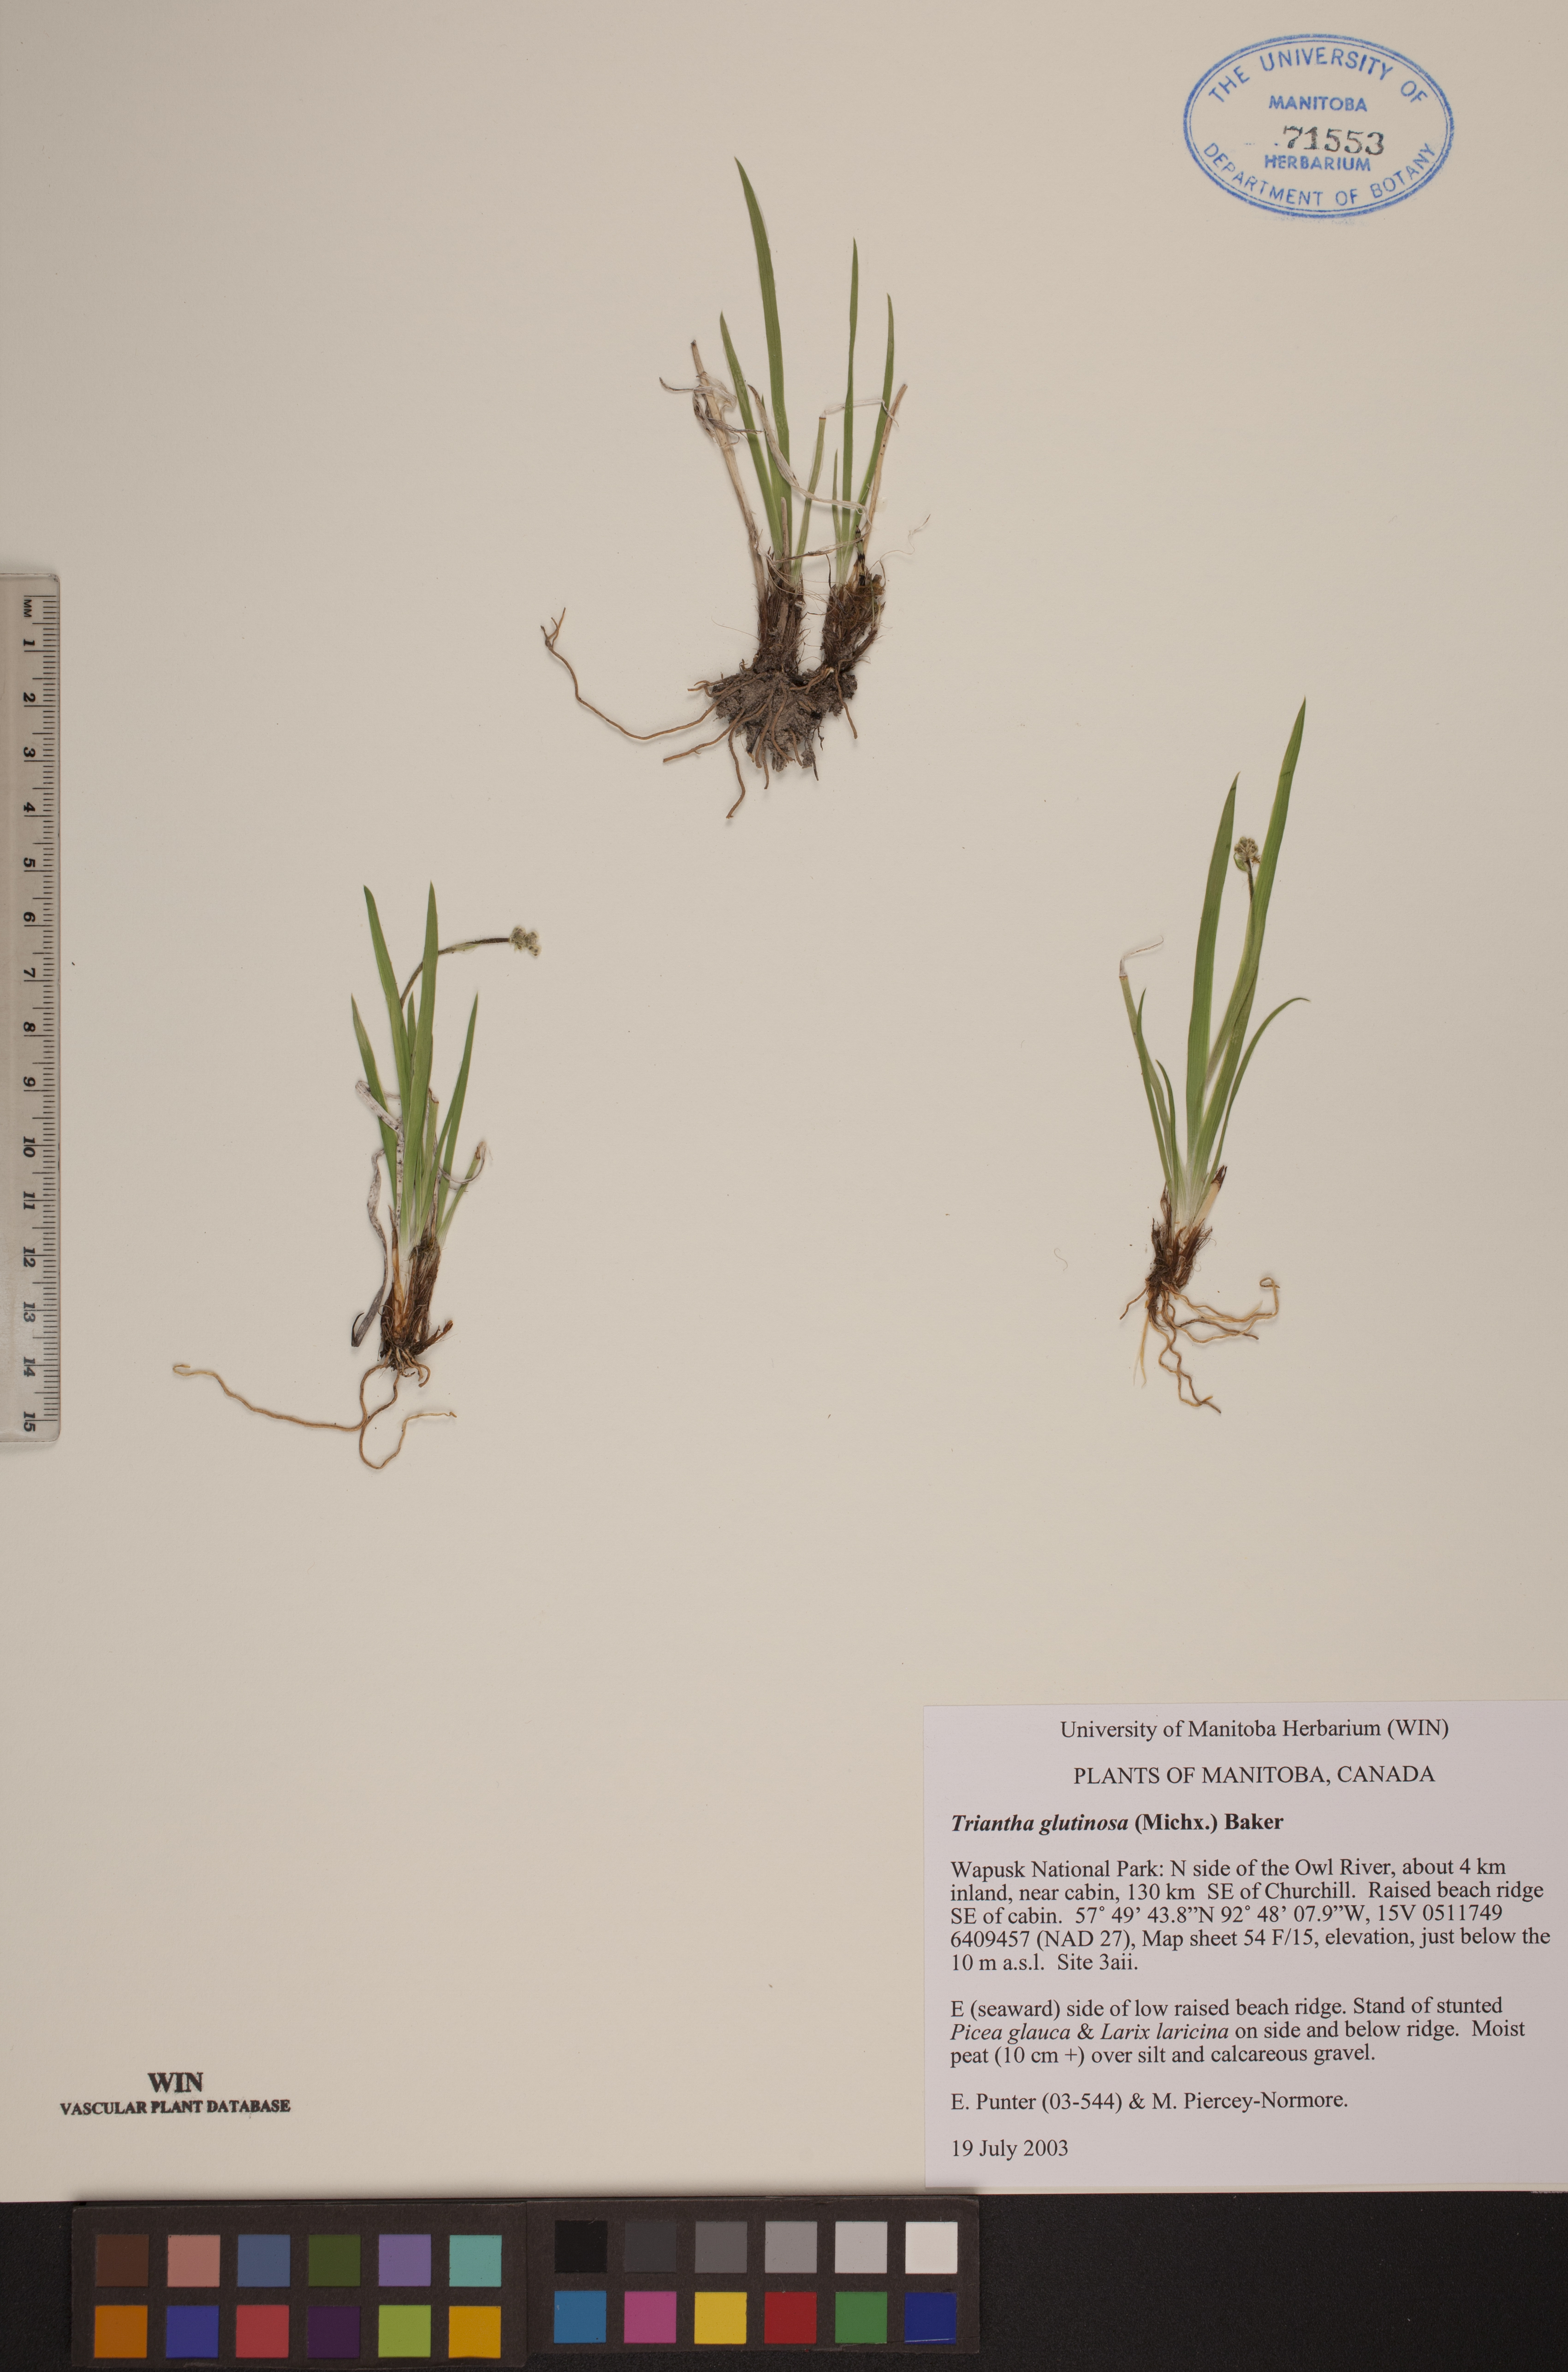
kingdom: Plantae
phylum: Tracheophyta
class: Liliopsida
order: Alismatales
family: Tofieldiaceae
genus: Triantha
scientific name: Triantha glutinosa
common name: Glutinous tofieldia
